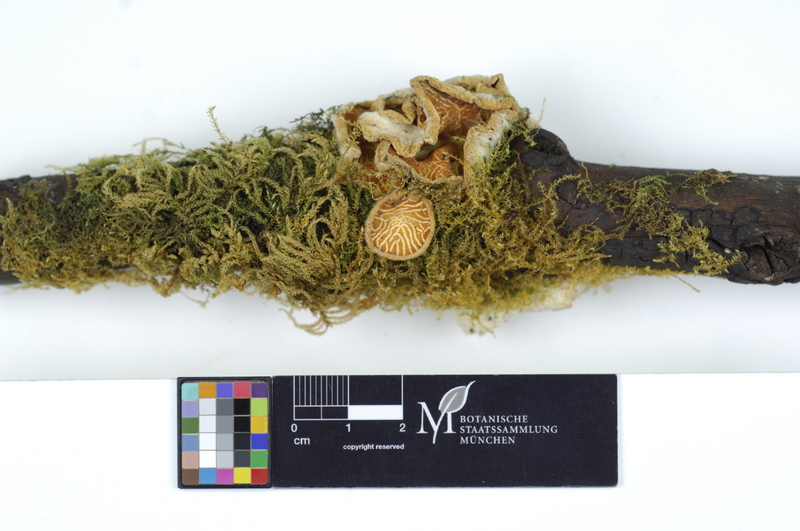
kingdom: Fungi
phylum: Ascomycota
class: Pezizomycetes
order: Pezizales
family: Sarcoscyphaceae
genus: Sarcoscypha
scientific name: Sarcoscypha coccinea
